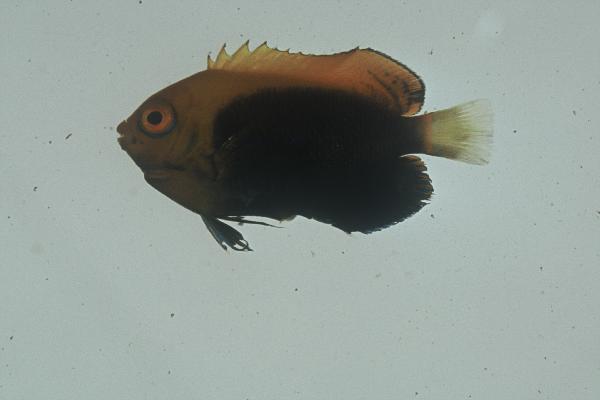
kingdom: Animalia
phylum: Chordata
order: Perciformes
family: Pomacanthidae
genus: Centropyge
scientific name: Centropyge acanthops
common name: African pygmy angelfish
